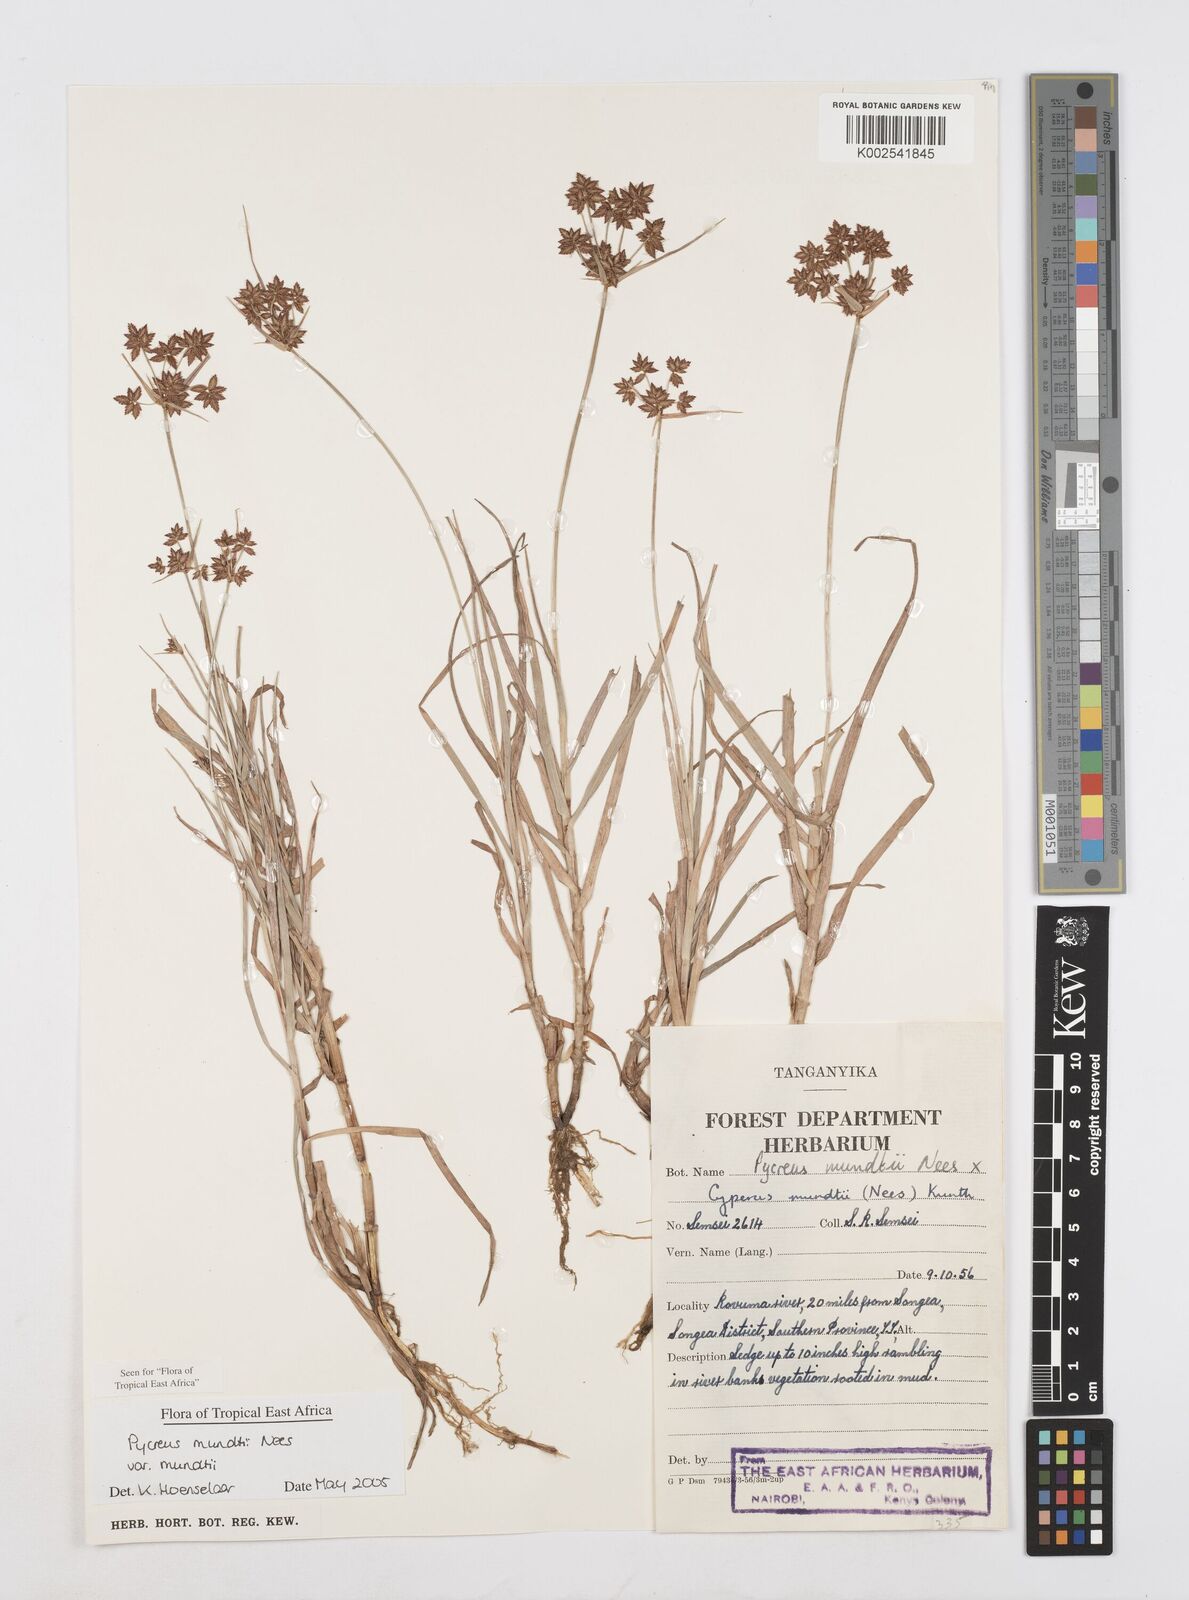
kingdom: Plantae
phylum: Tracheophyta
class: Liliopsida
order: Poales
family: Cyperaceae
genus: Cyperus
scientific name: Cyperus mundii
